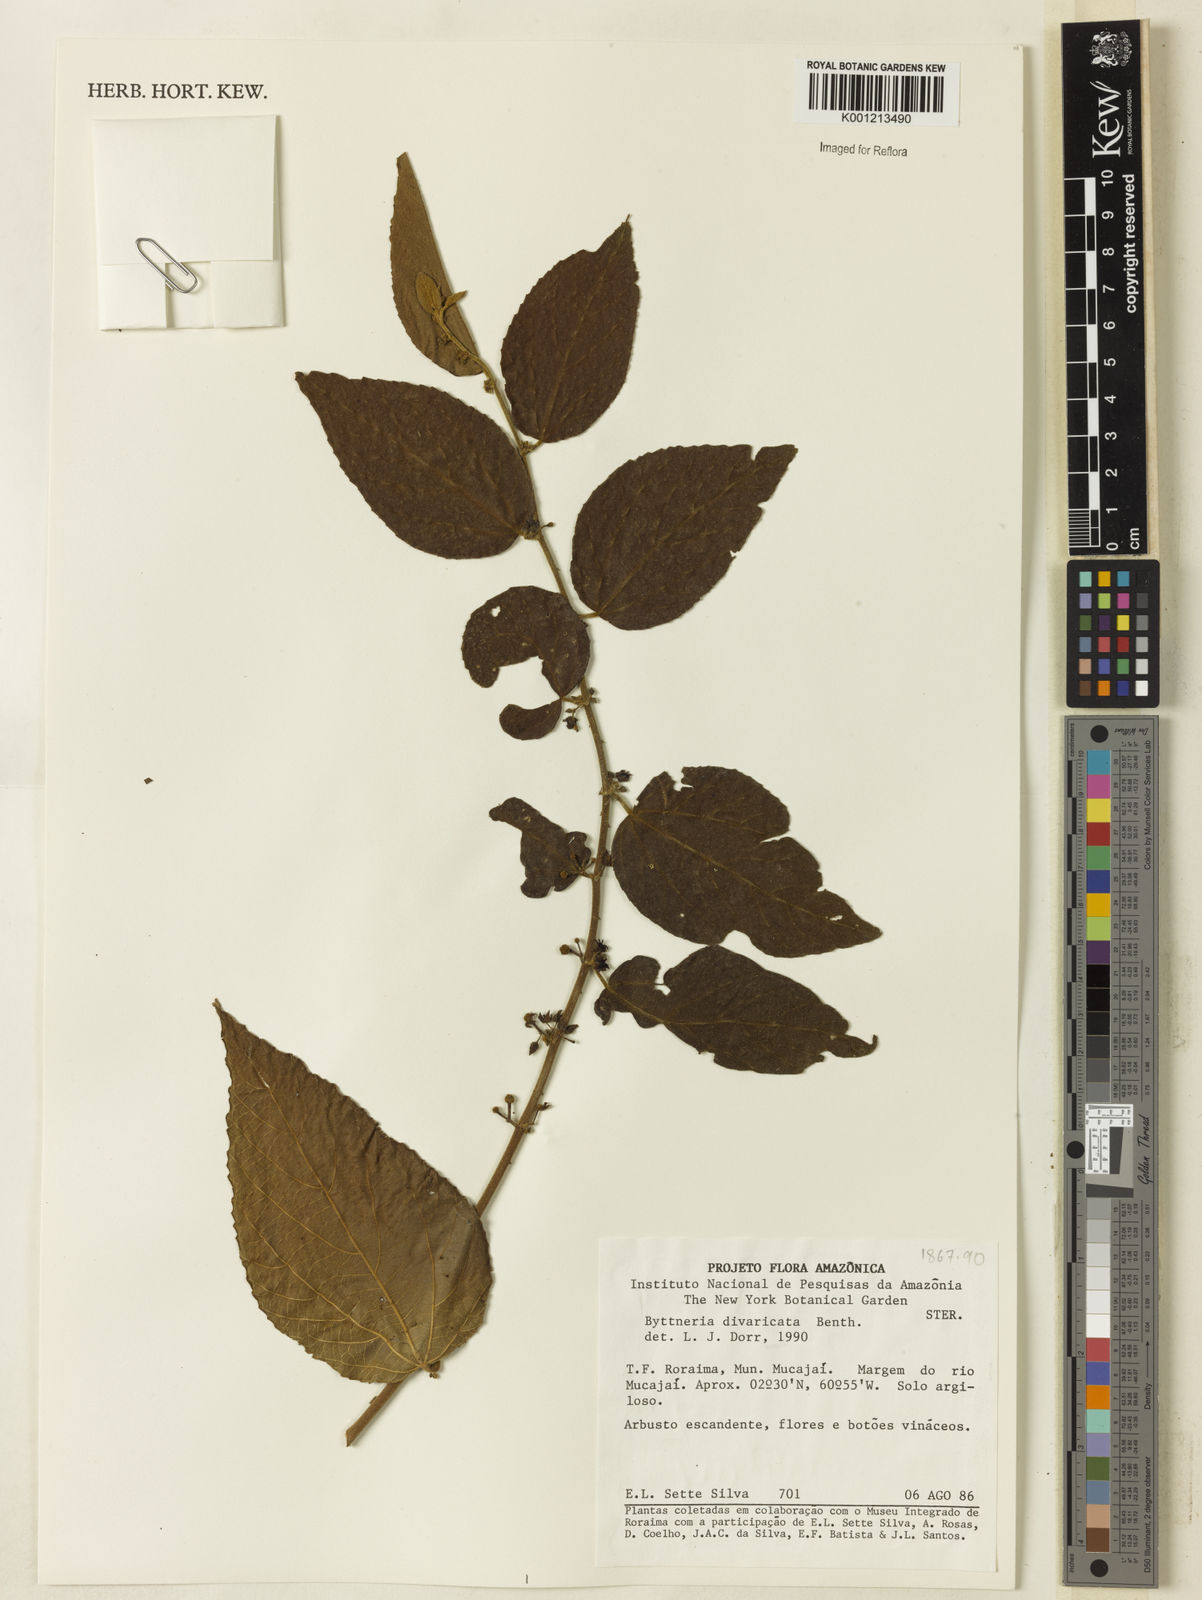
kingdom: Plantae
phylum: Tracheophyta
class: Magnoliopsida
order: Malvales
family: Malvaceae
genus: Byttneria
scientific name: Byttneria divaricata
